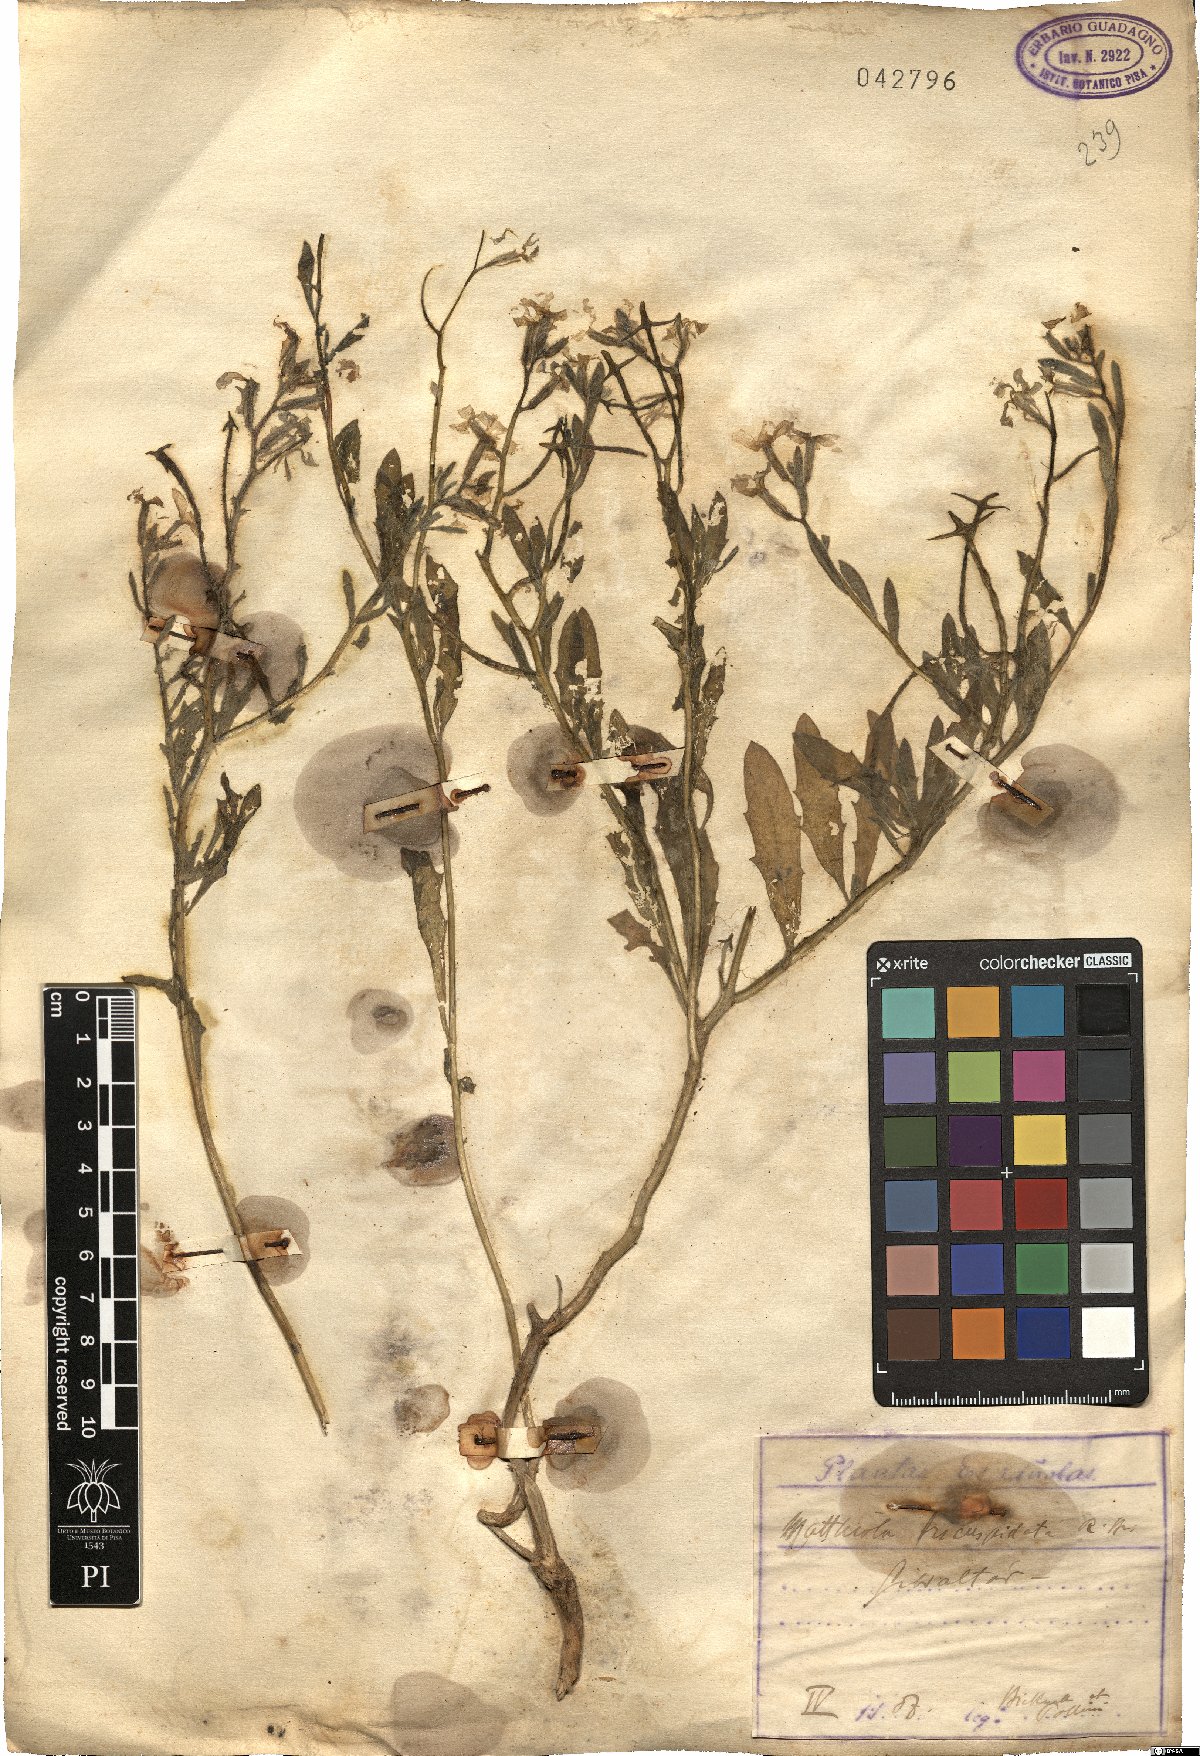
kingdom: Plantae
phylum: Tracheophyta
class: Magnoliopsida
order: Brassicales
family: Brassicaceae
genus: Matthiola
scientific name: Matthiola tricuspidata
